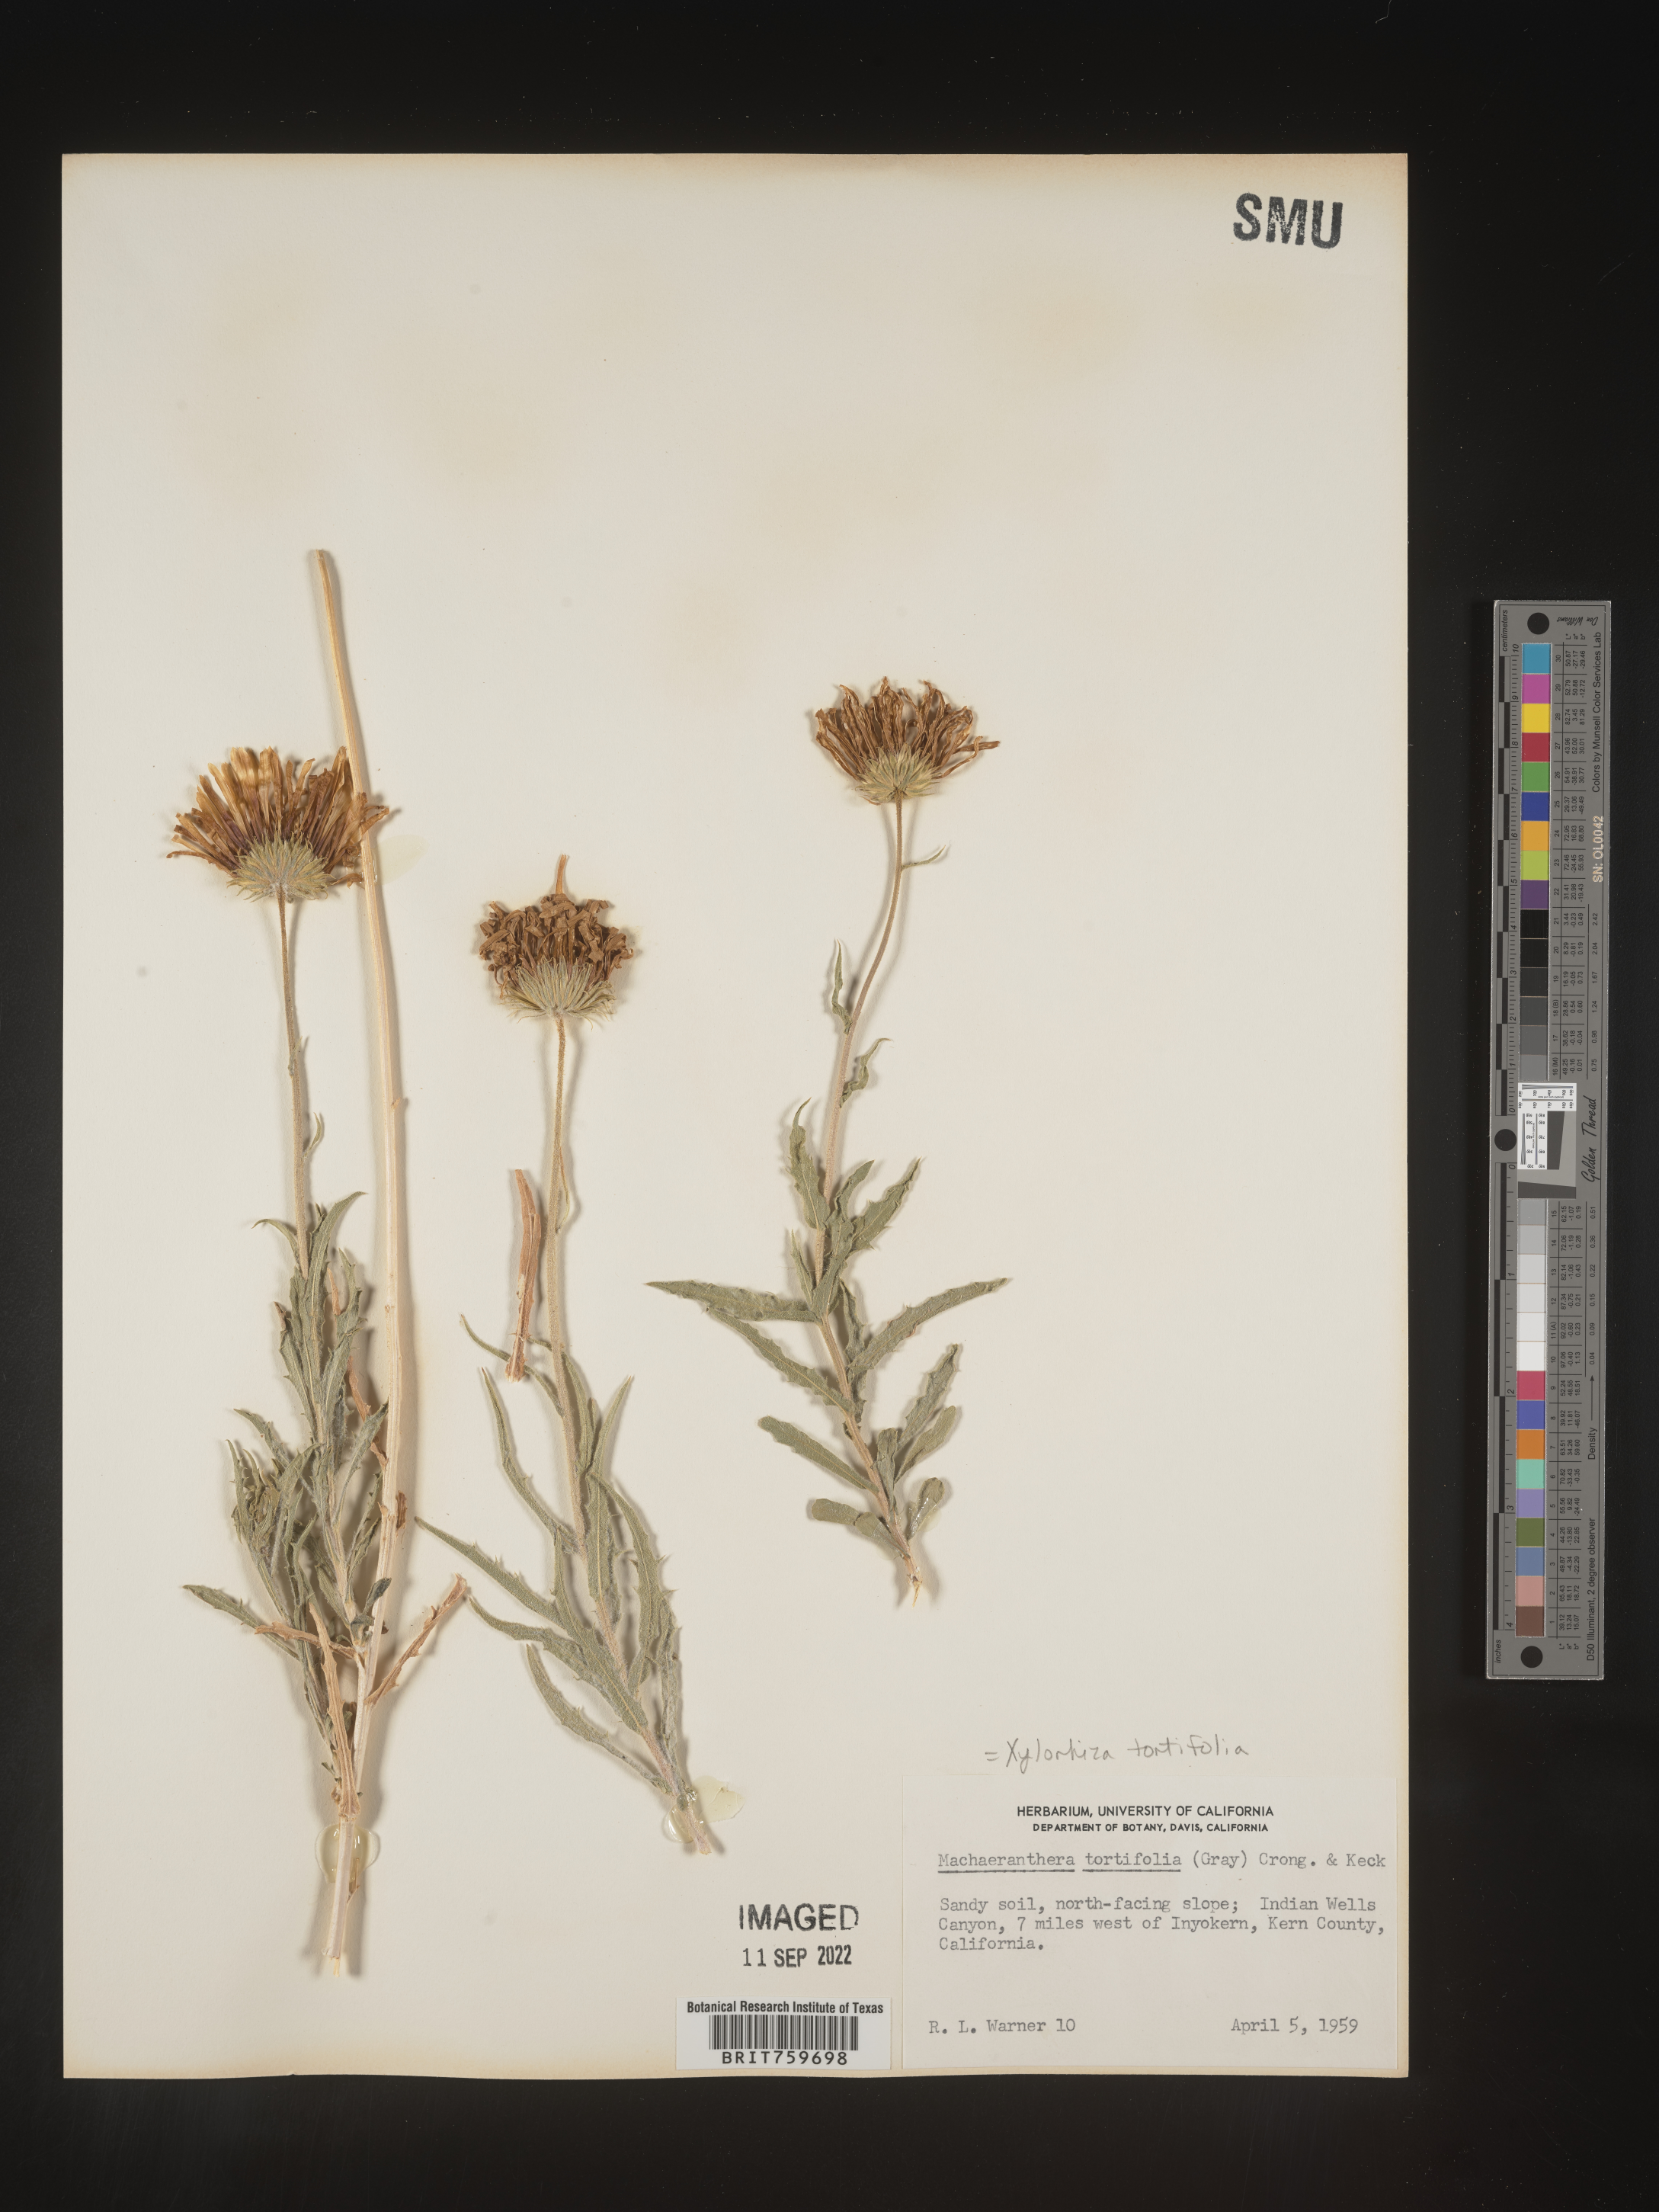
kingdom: Plantae
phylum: Tracheophyta
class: Magnoliopsida
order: Asterales
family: Asteraceae
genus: Xylorhiza
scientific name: Xylorhiza tortifolia
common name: Hurt-leaf woody-aster
